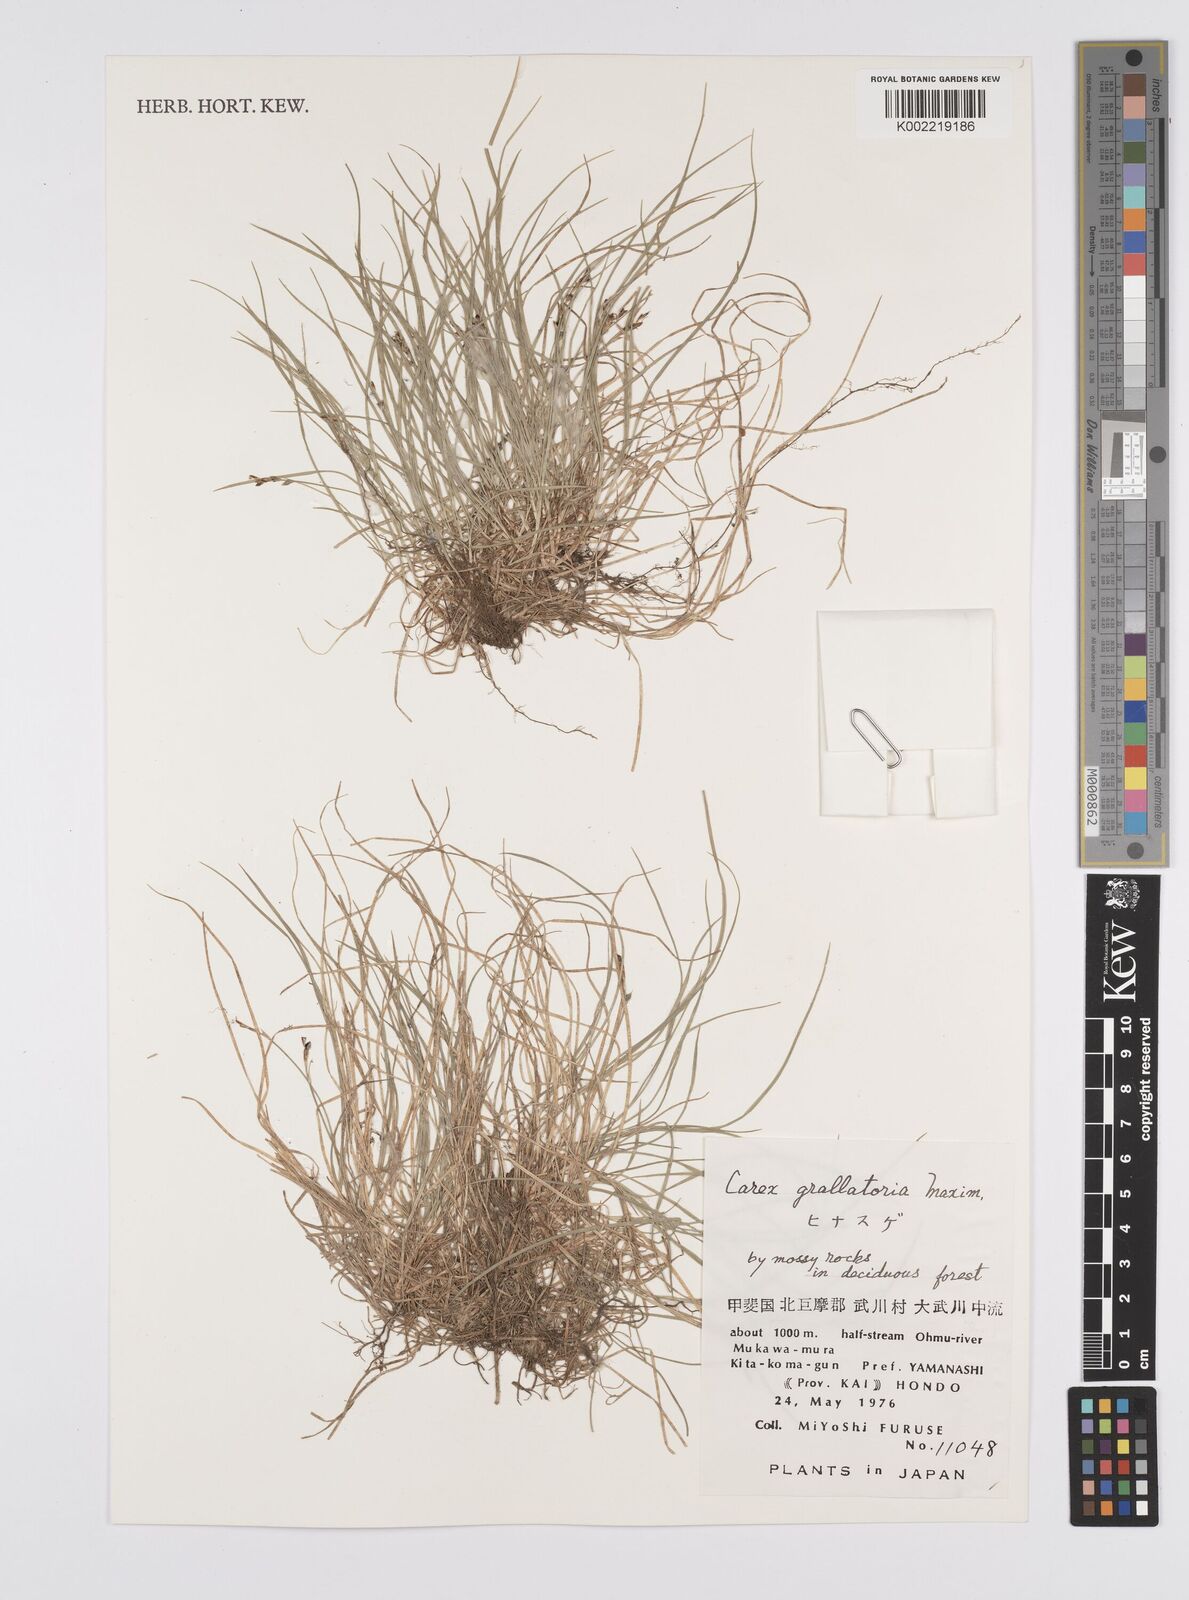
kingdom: Plantae
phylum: Tracheophyta
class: Liliopsida
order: Poales
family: Cyperaceae
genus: Carex
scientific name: Carex grallatoria
